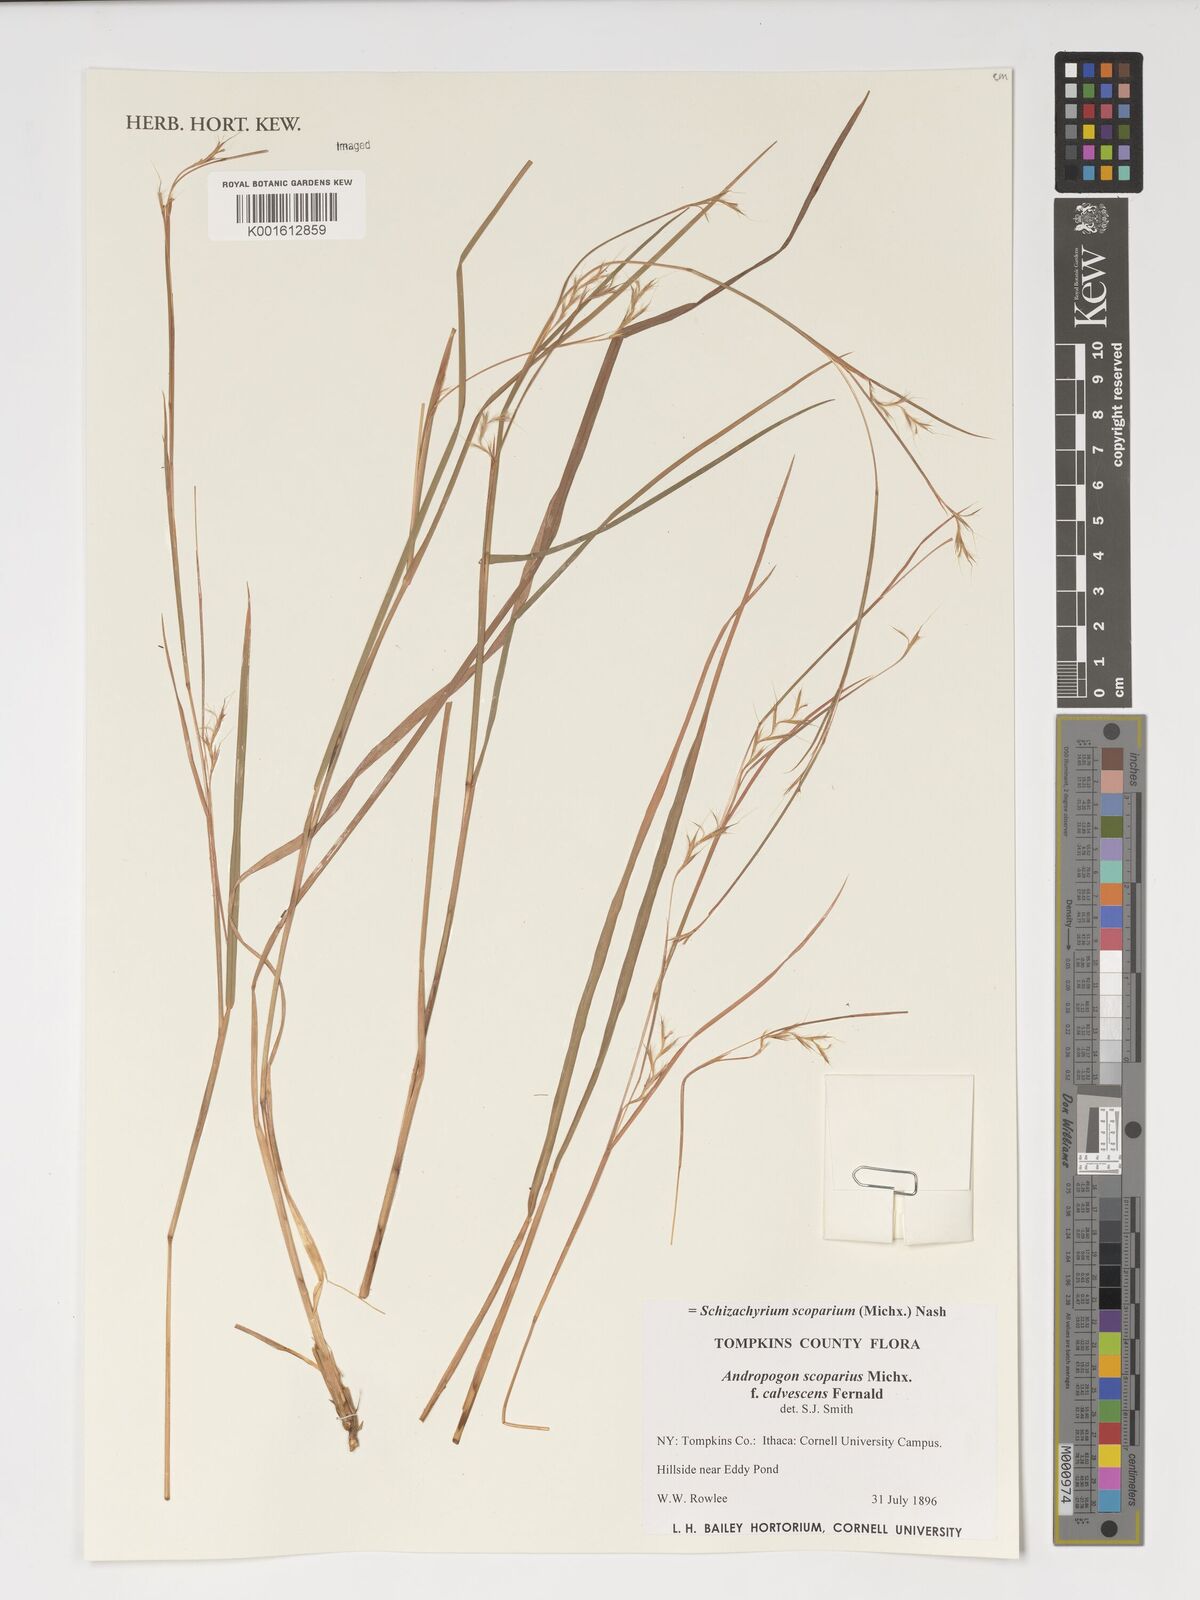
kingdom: Plantae
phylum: Tracheophyta
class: Liliopsida
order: Poales
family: Poaceae
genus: Schizachyrium
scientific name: Schizachyrium scoparium
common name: Little bluestem
